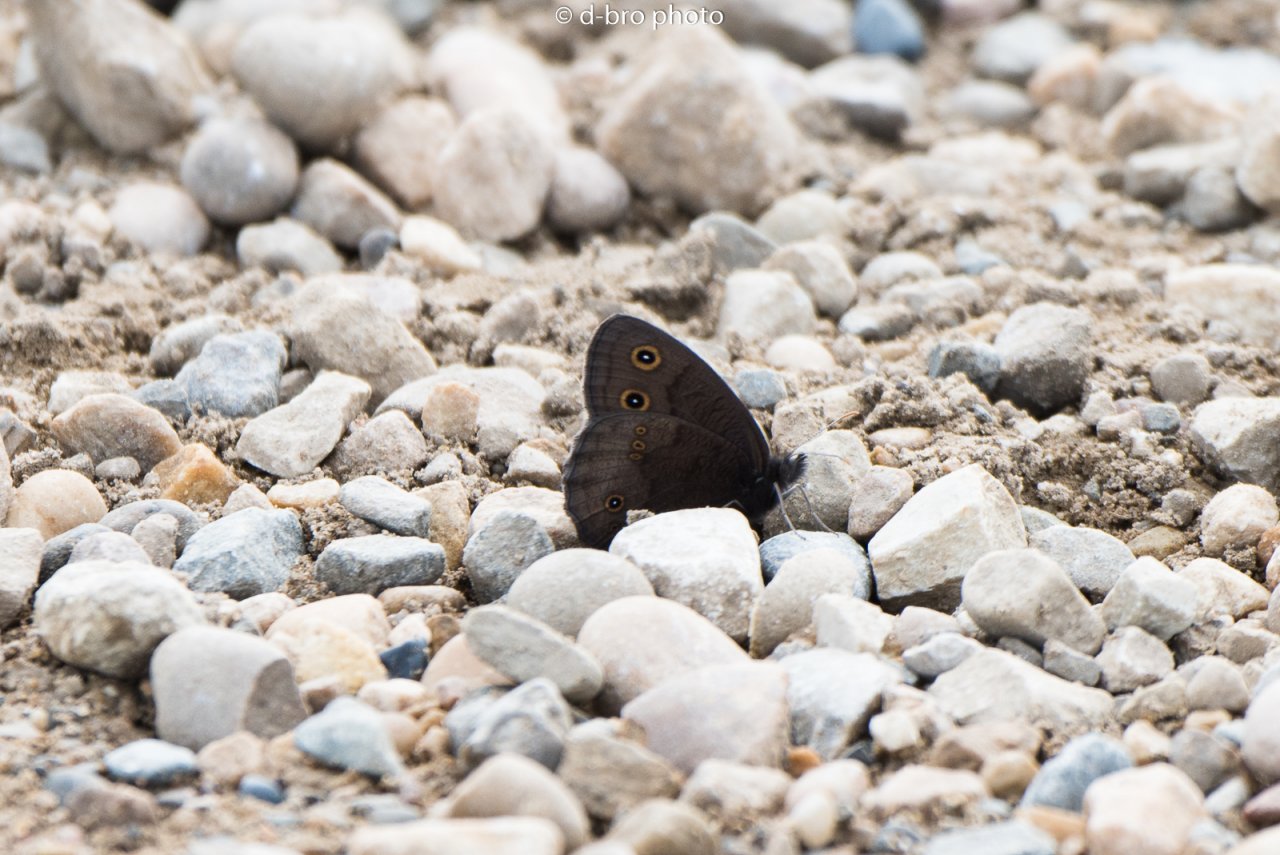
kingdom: Animalia
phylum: Arthropoda
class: Insecta
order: Lepidoptera
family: Nymphalidae
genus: Cercyonis
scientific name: Cercyonis pegala
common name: Common Wood-Nymph
